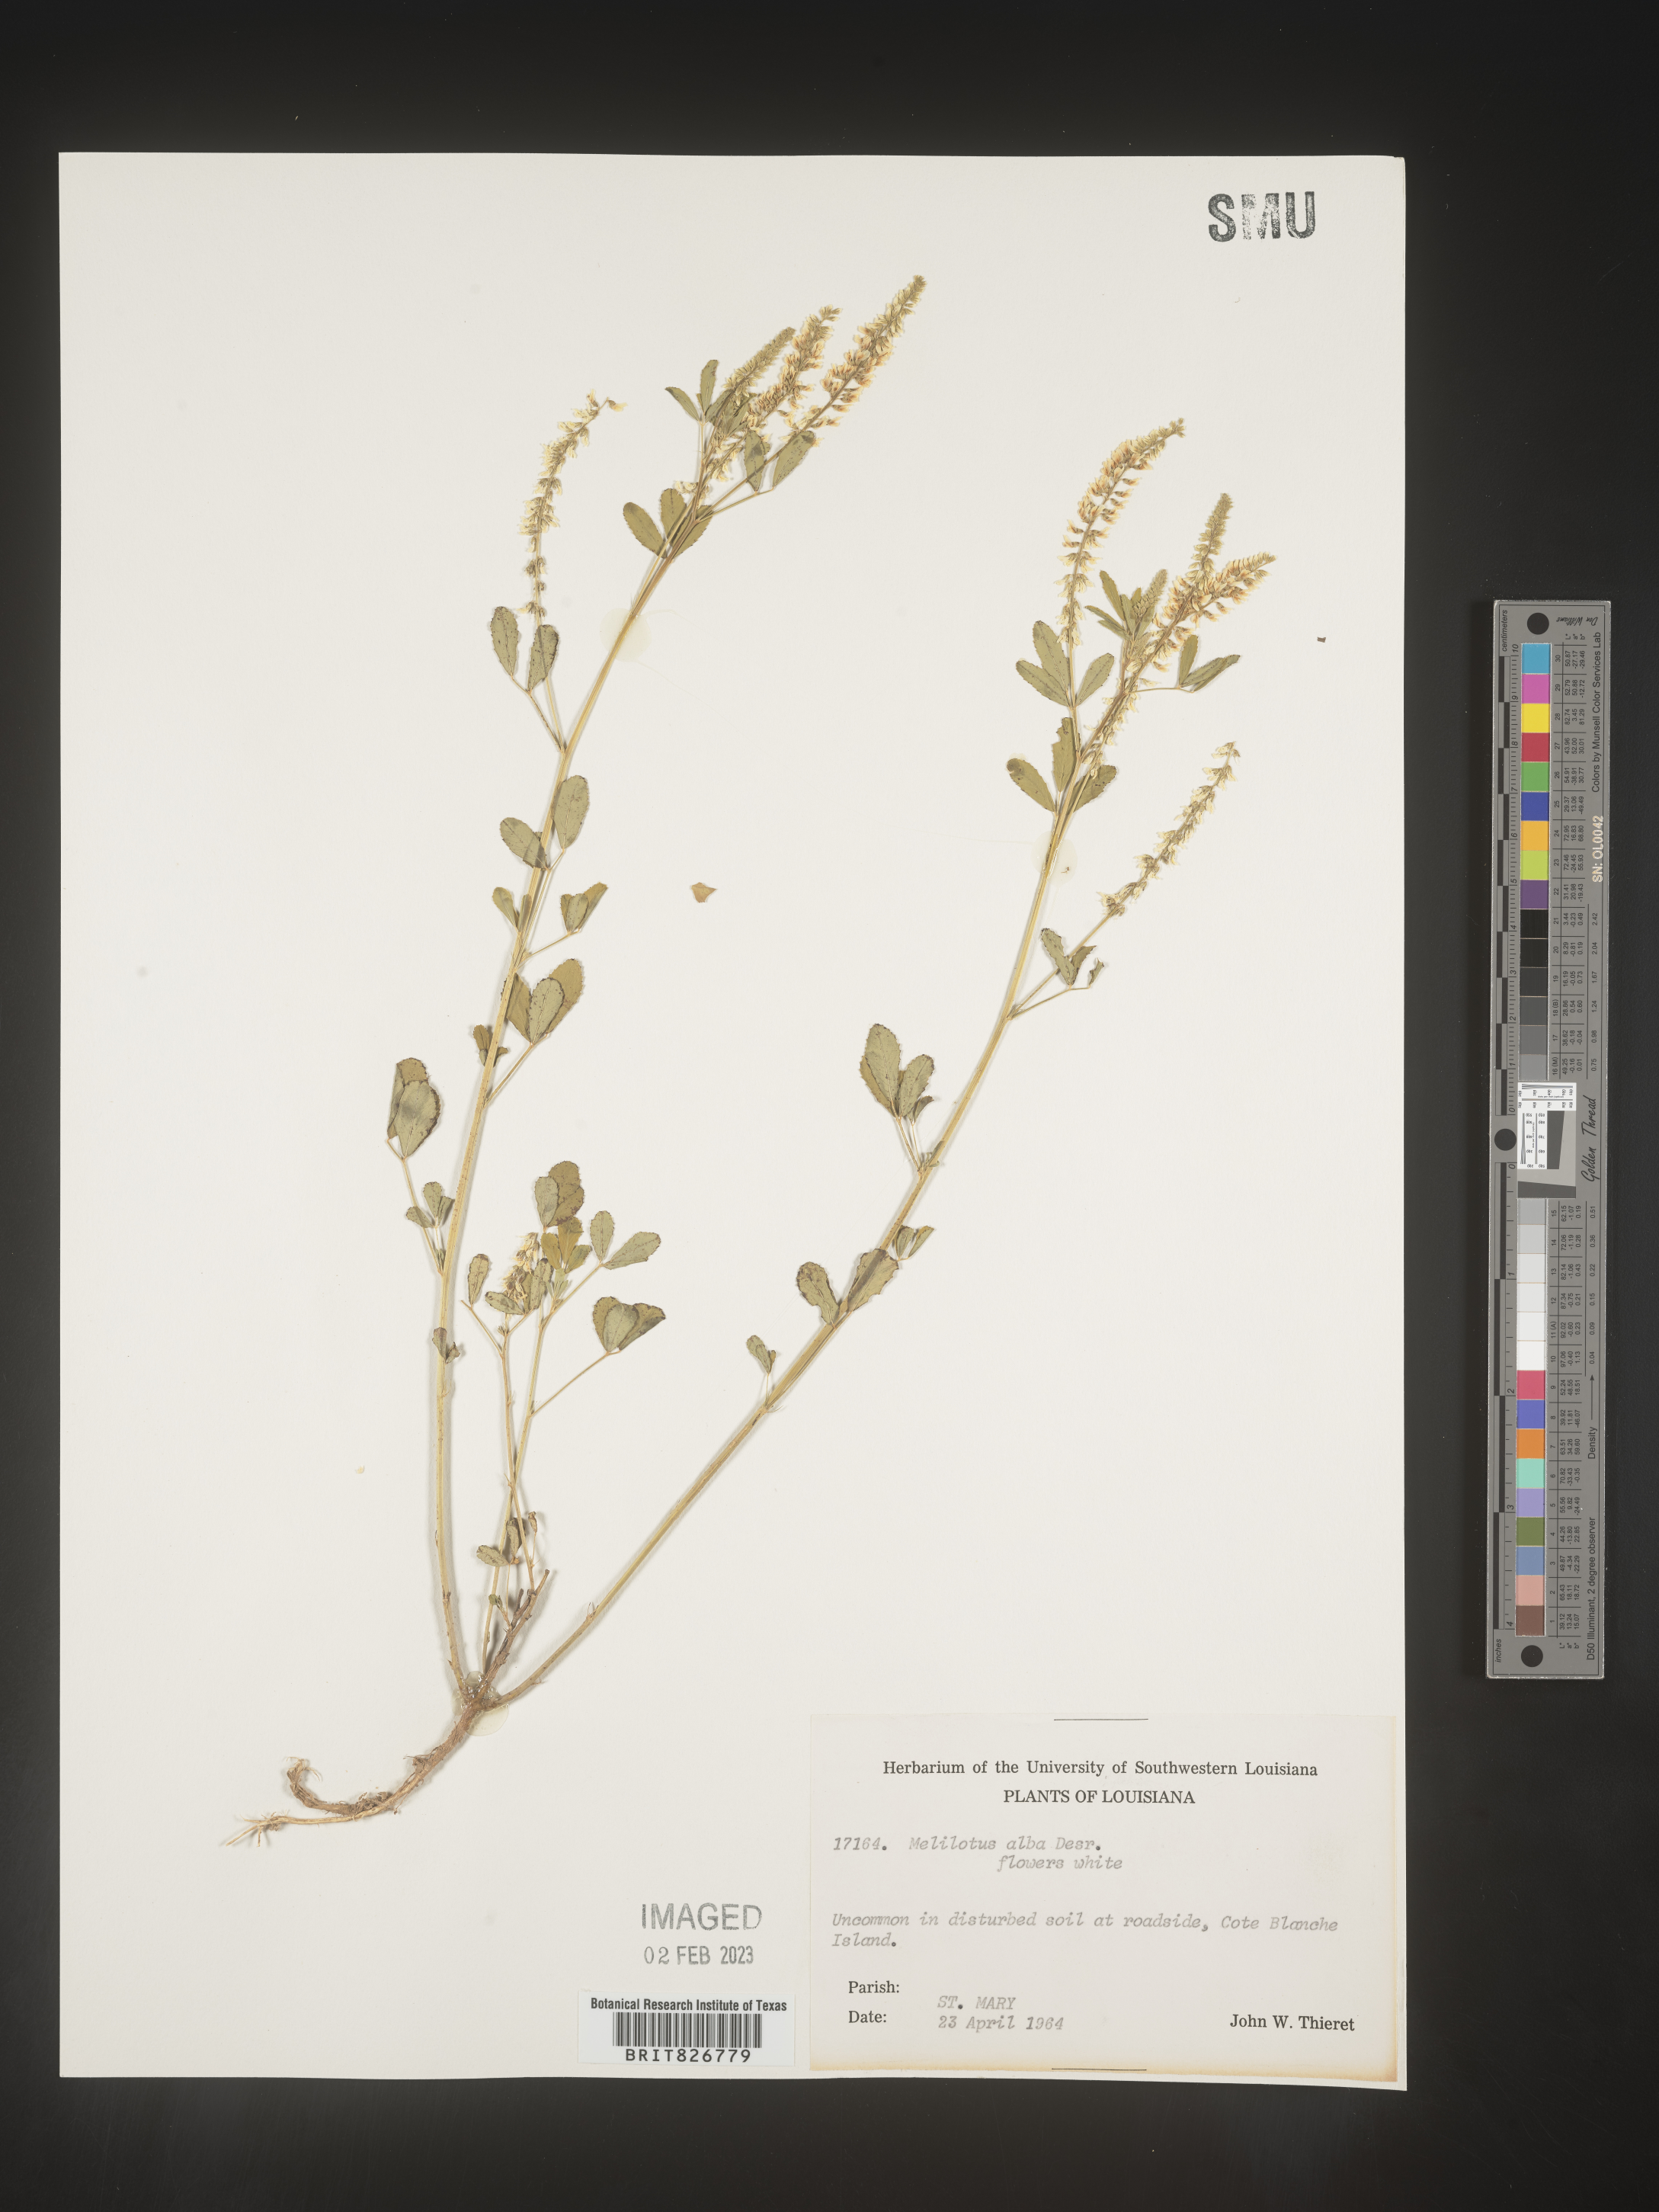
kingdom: Plantae
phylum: Tracheophyta
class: Magnoliopsida
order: Fabales
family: Fabaceae
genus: Melilotus
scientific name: Melilotus albus
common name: White melilot
